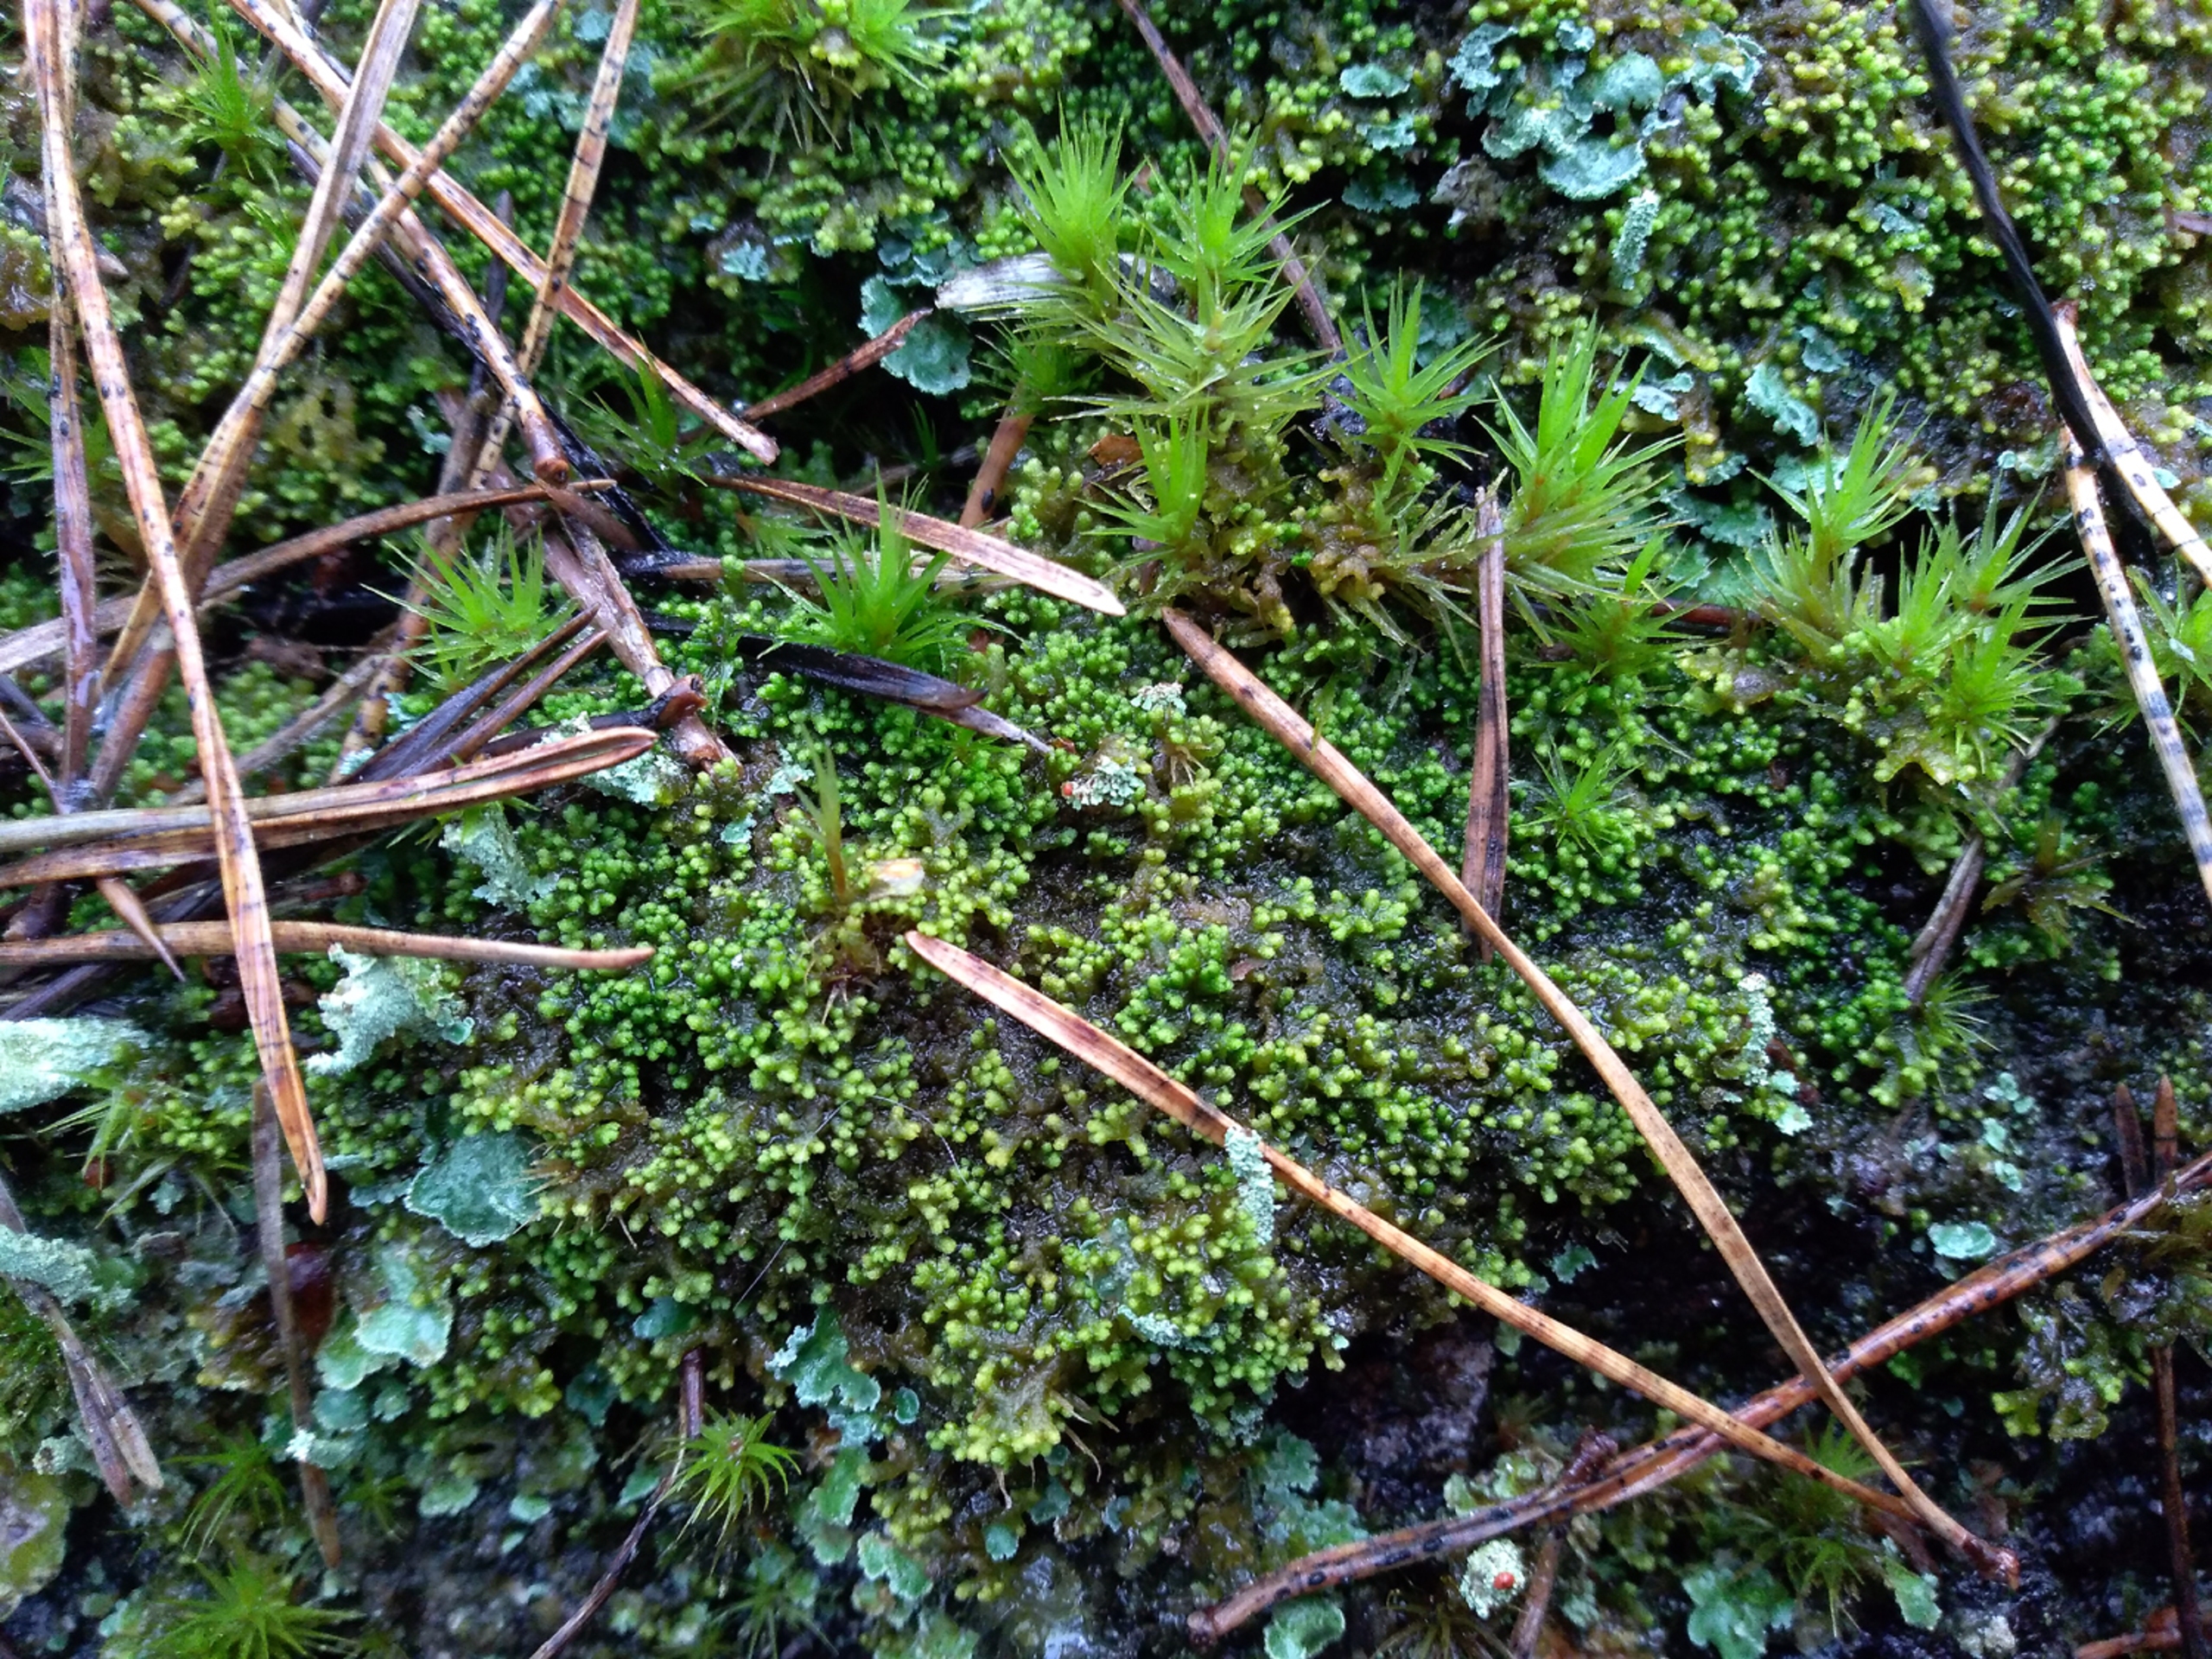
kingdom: Plantae
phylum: Marchantiophyta
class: Jungermanniopsida
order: Ptilidiales
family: Ptilidiaceae
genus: Ptilidium
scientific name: Ptilidium pulcherrimum
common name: Stub-frynsemos
